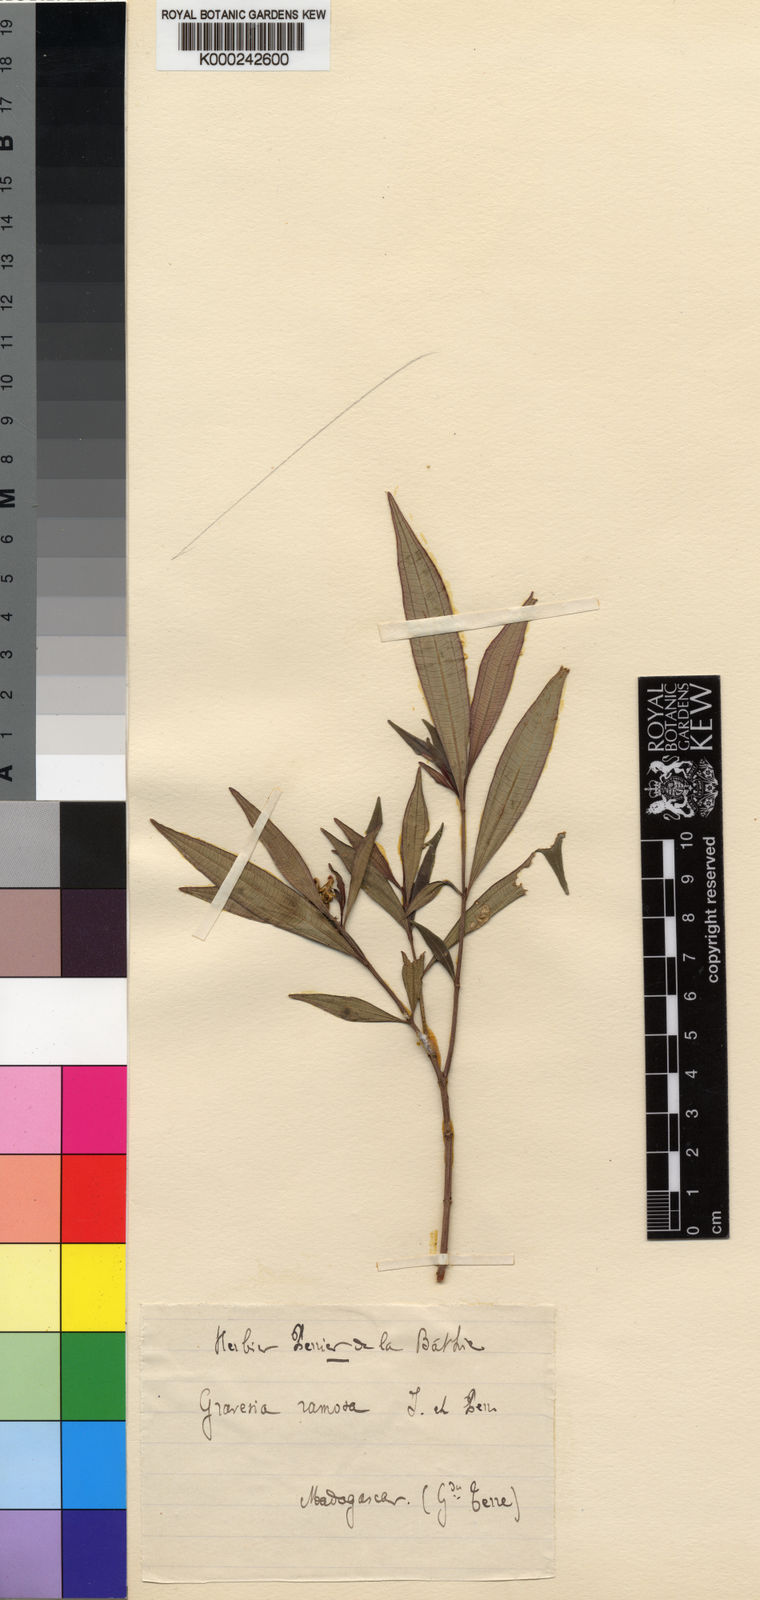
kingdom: Plantae
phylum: Tracheophyta
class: Magnoliopsida
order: Myrtales
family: Melastomataceae
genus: Gravesia
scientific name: Gravesia ramosa
